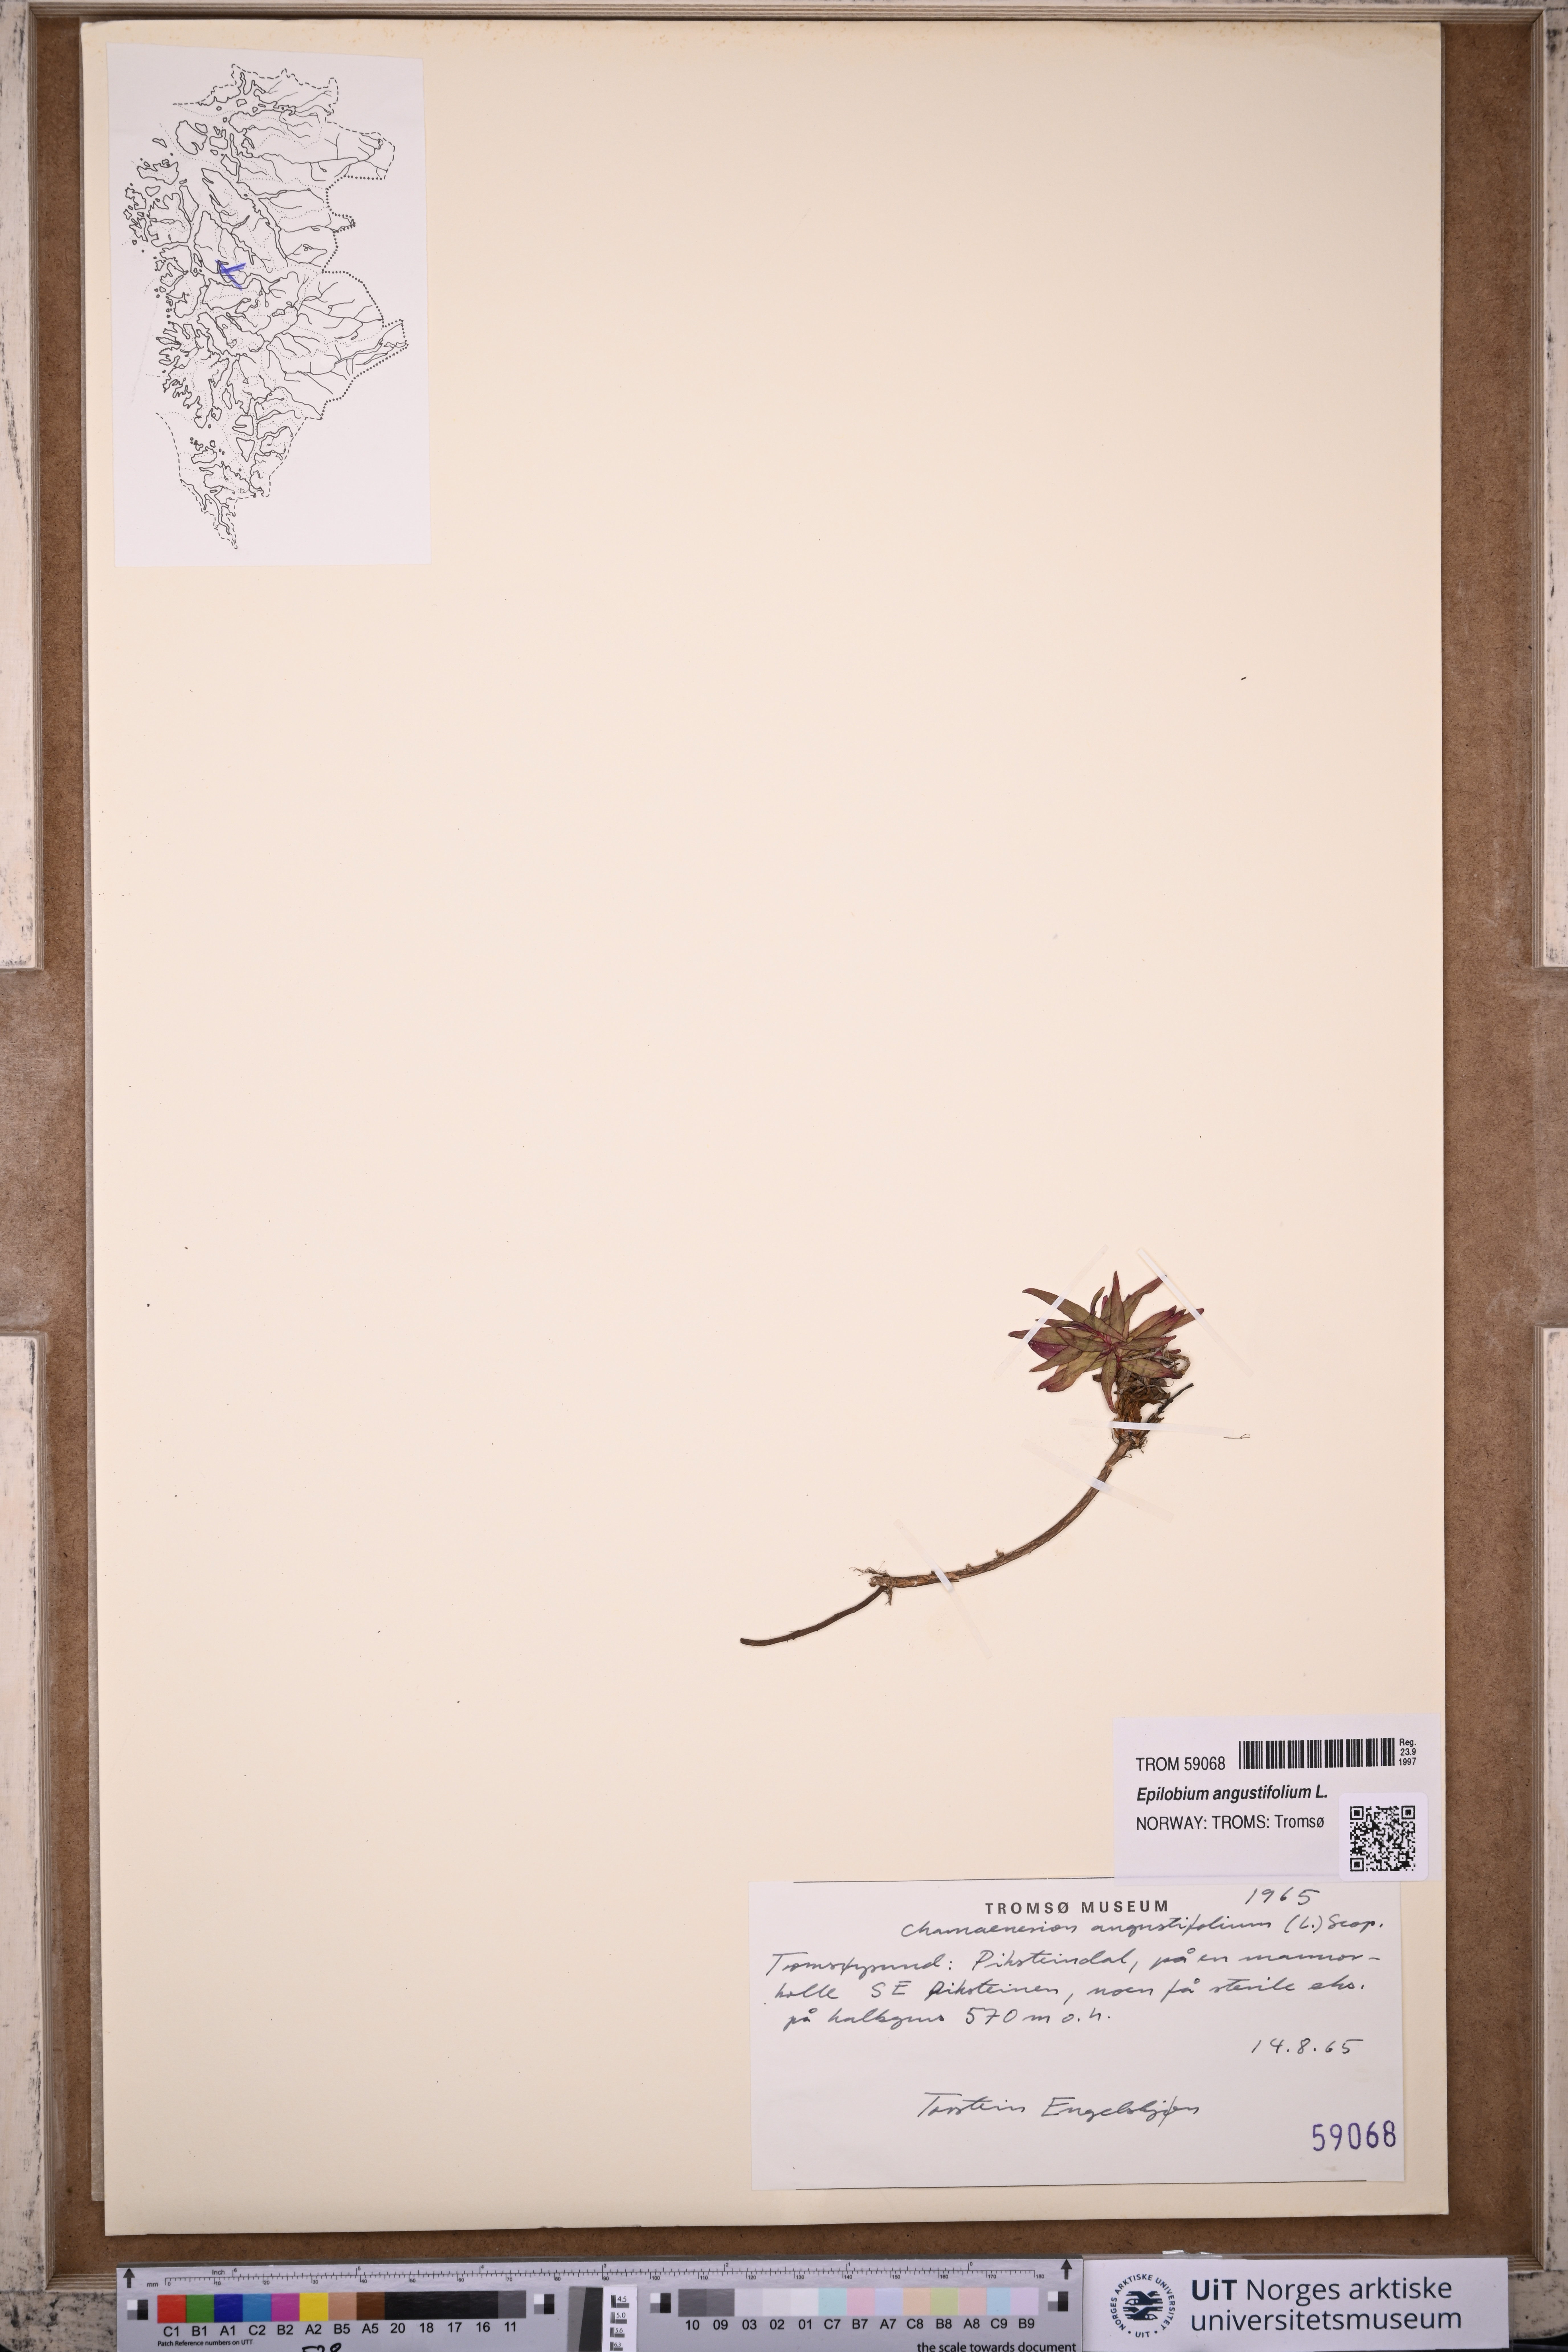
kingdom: Plantae
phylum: Tracheophyta
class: Magnoliopsida
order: Myrtales
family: Onagraceae
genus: Chamaenerion
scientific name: Chamaenerion angustifolium
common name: Fireweed
